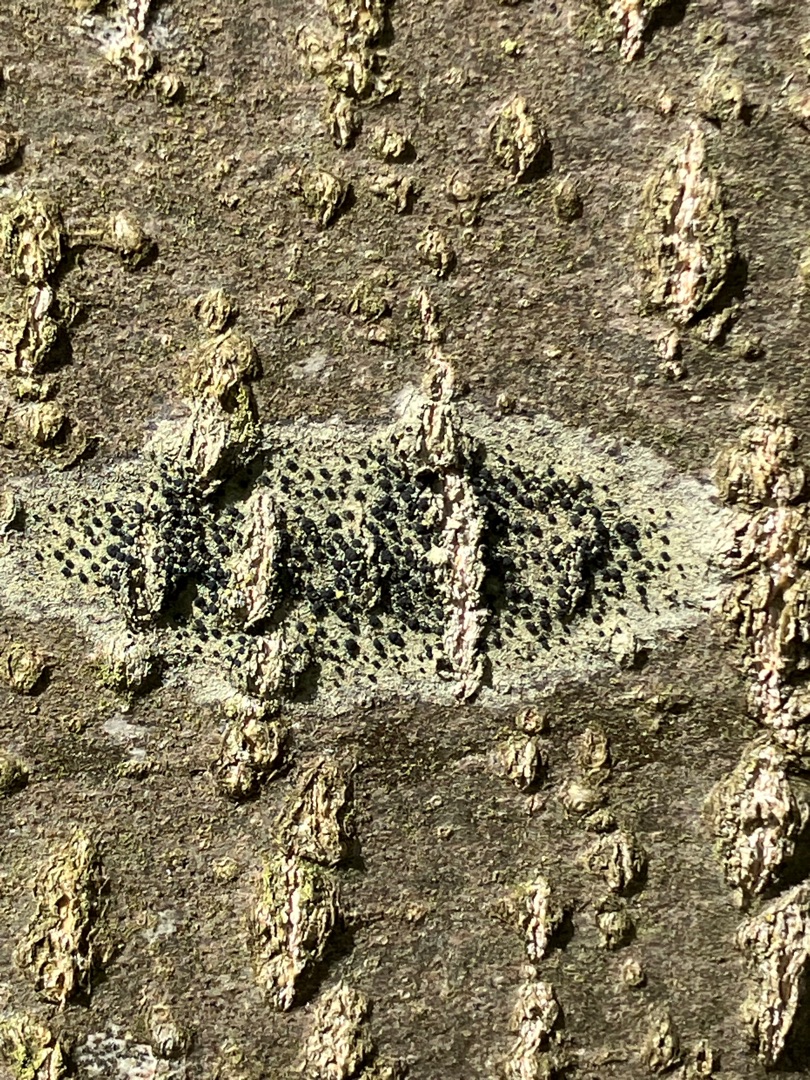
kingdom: Fungi
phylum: Ascomycota
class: Lecanoromycetes
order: Lecanorales
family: Lecanoraceae
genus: Lecidella
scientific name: Lecidella elaeochroma
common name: Grågrøn skivelav
